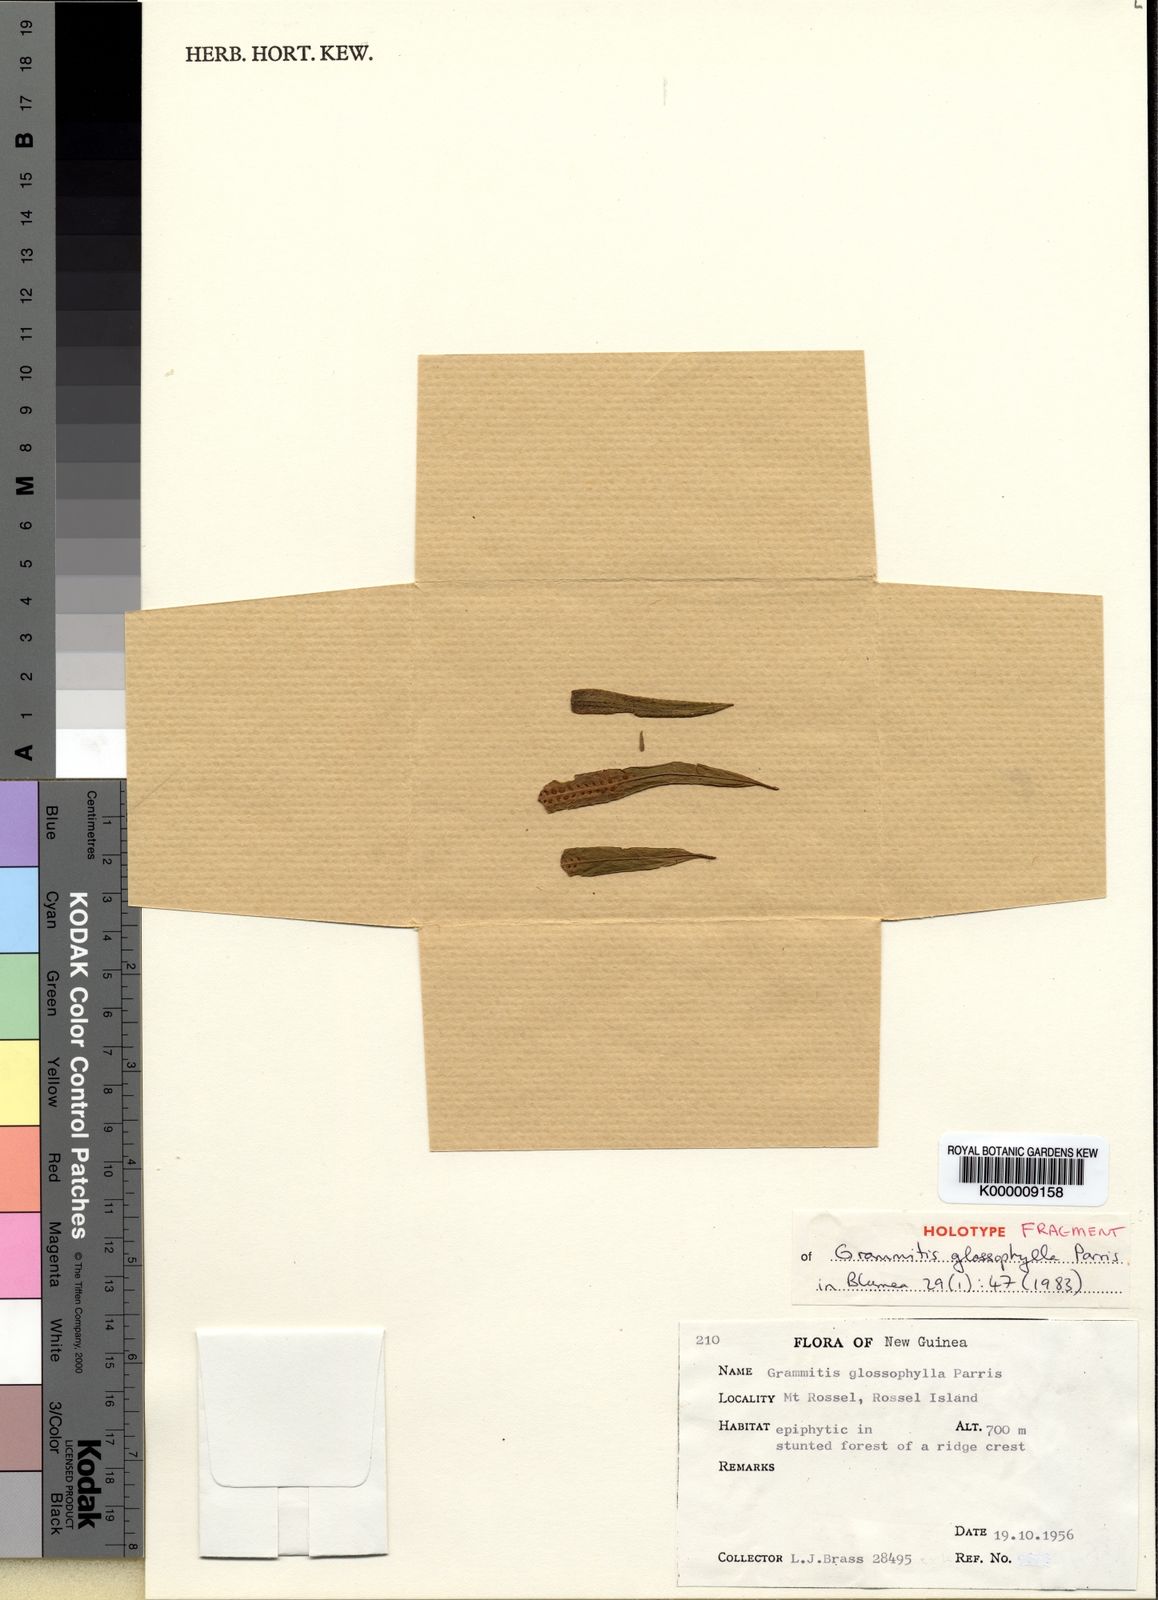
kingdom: Plantae
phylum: Tracheophyta
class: Polypodiopsida
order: Polypodiales
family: Polypodiaceae
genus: Oreogrammitis
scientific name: Oreogrammitis glossophylla
